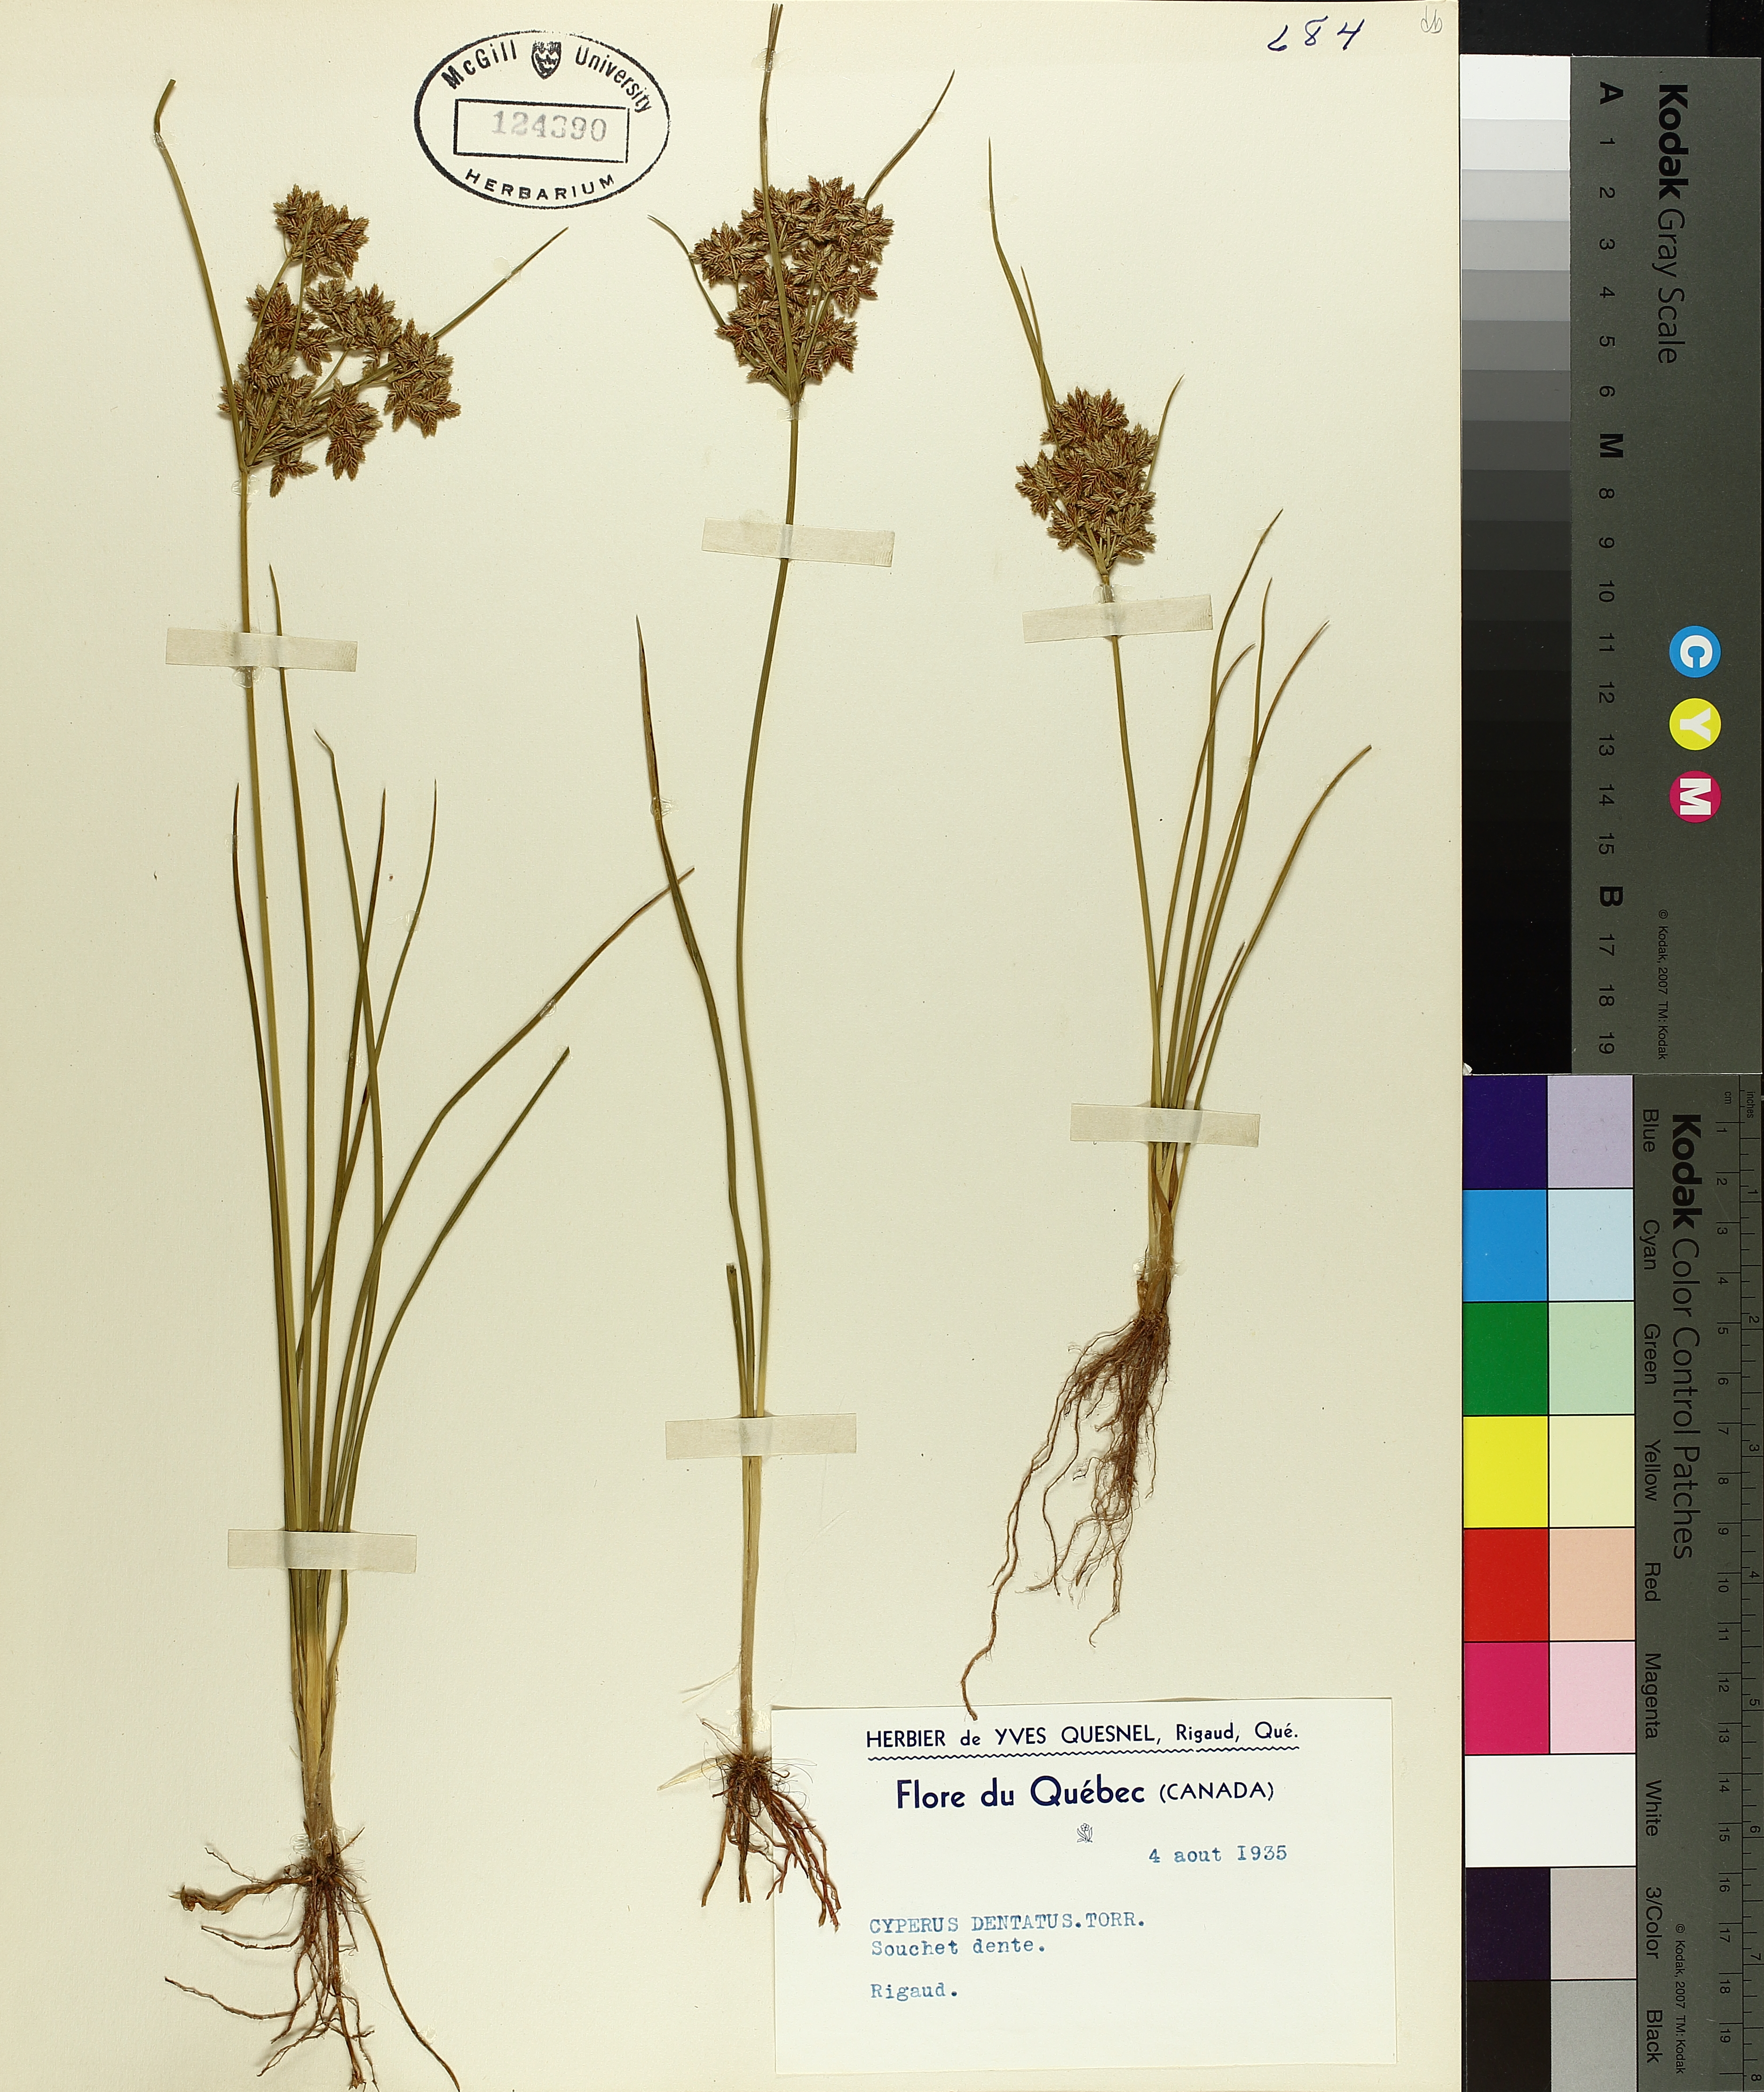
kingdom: Plantae
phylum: Tracheophyta
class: Liliopsida
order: Poales
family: Cyperaceae
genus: Cyperus
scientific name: Cyperus dentatus
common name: Dentate umbrella sedge
